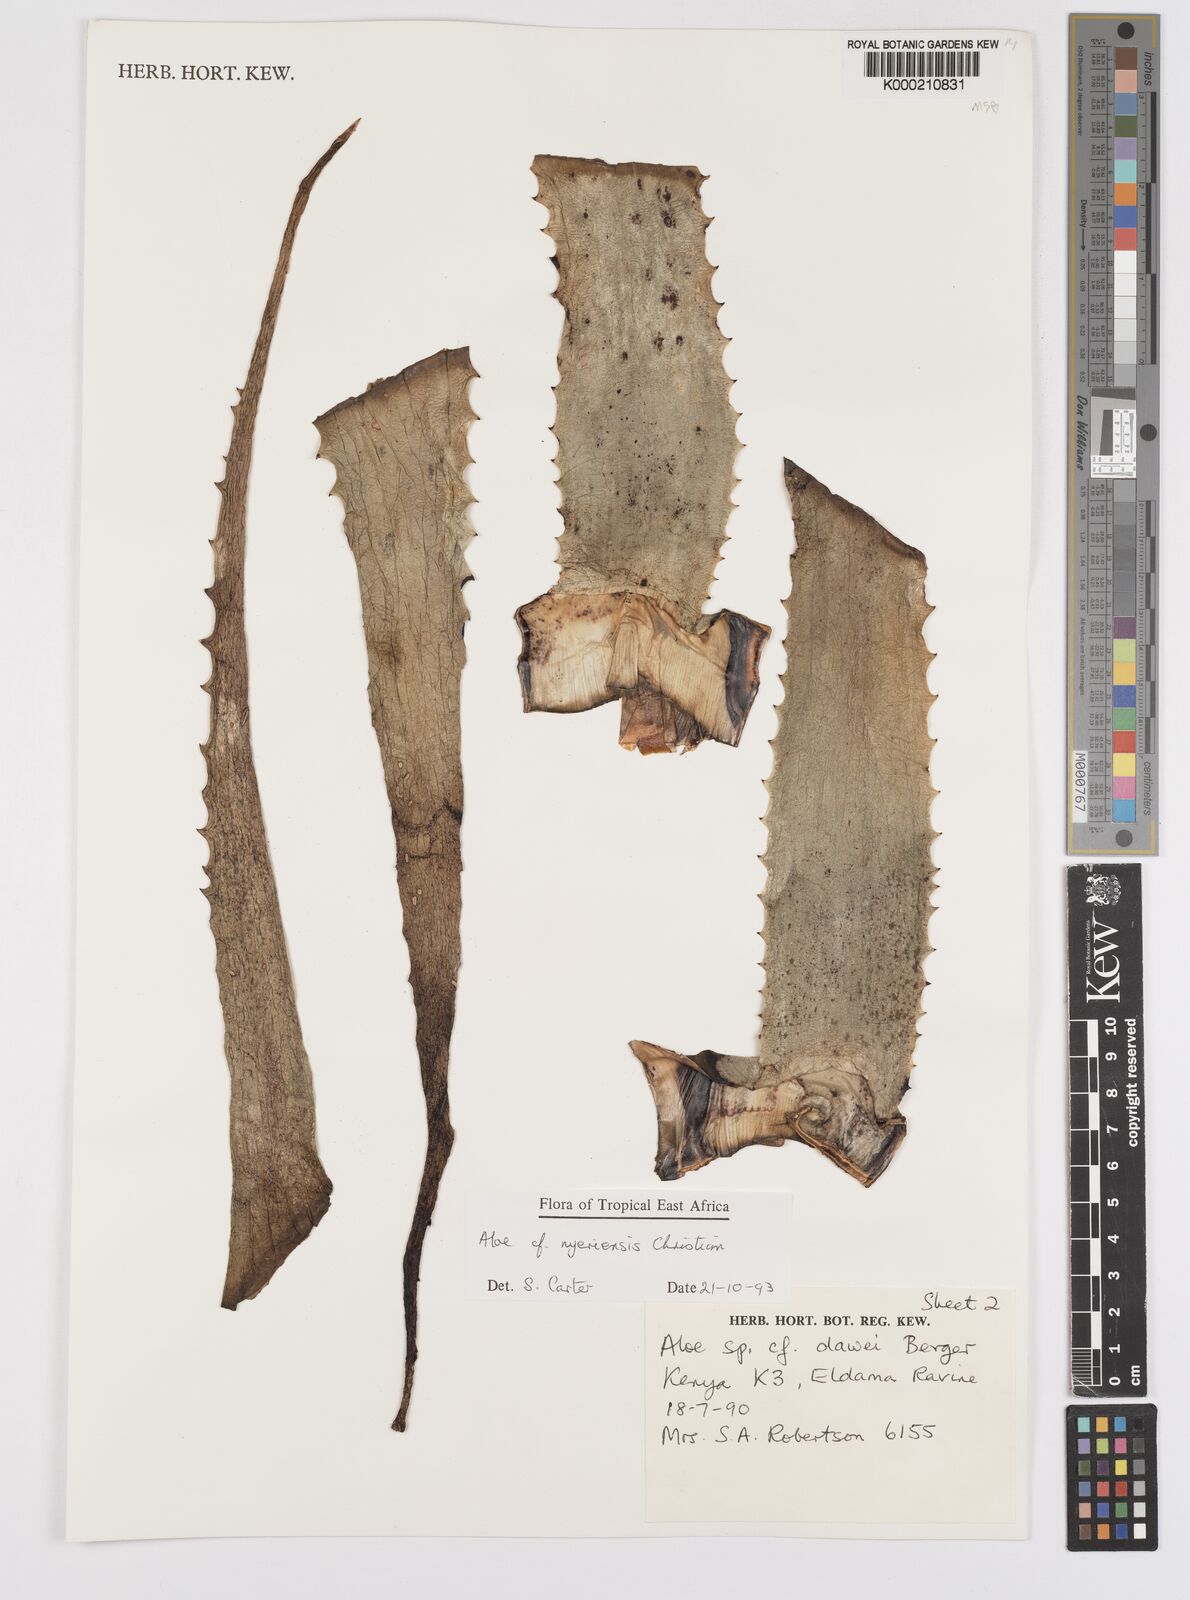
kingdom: Plantae
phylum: Tracheophyta
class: Liliopsida
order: Asparagales
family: Asphodelaceae
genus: Aloe
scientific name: Aloe nyeriensis
